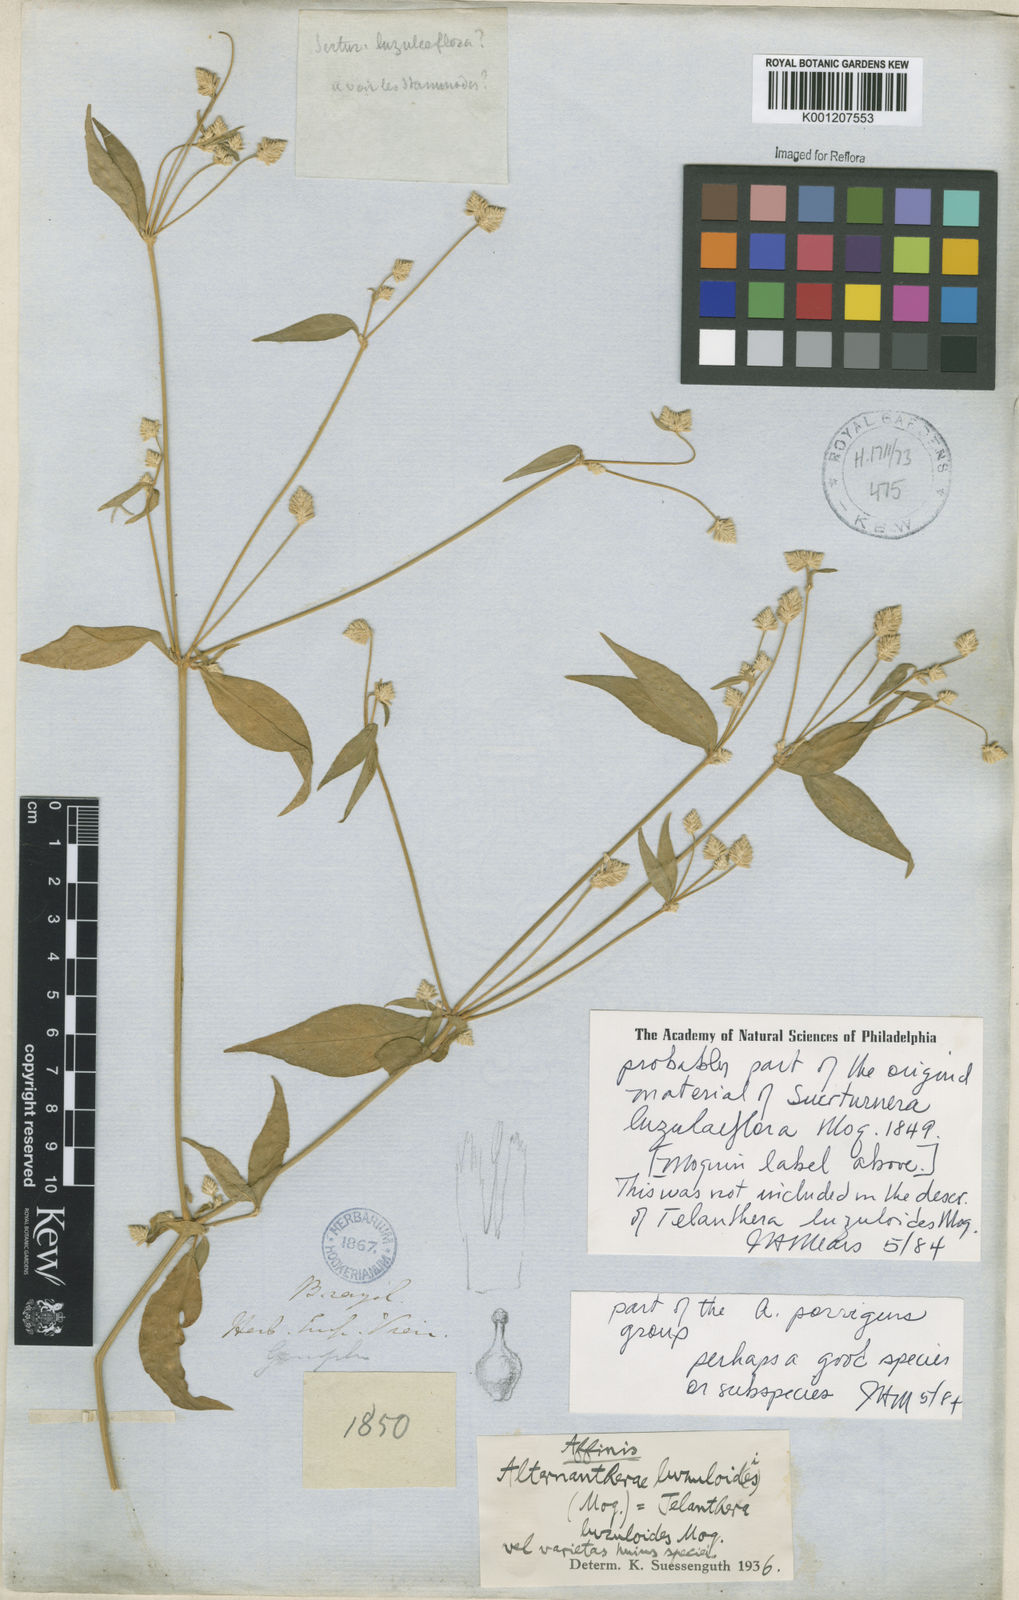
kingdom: Plantae
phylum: Tracheophyta
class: Magnoliopsida
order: Caryophyllales
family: Amaranthaceae
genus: Alternanthera
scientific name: Alternanthera porrigens
